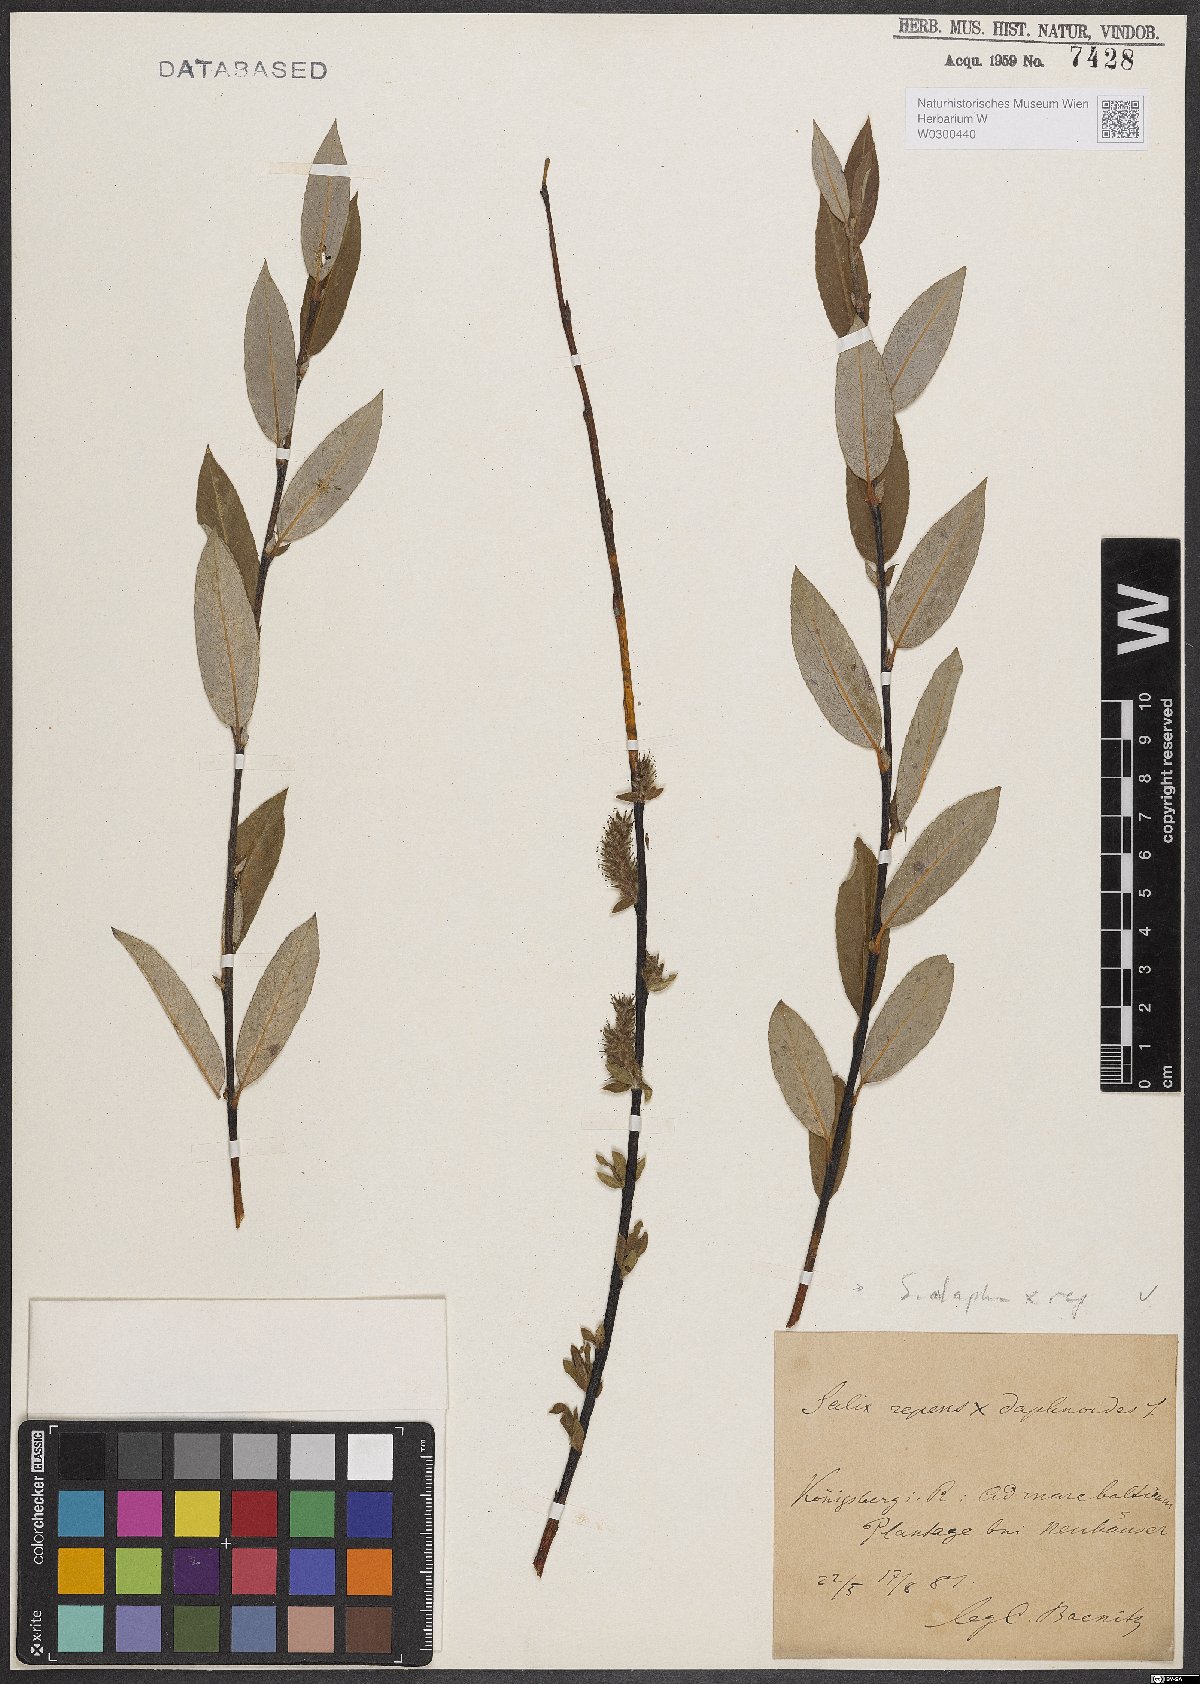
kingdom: Plantae
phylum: Tracheophyta
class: Magnoliopsida
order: Malpighiales
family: Salicaceae
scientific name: Salicaceae
